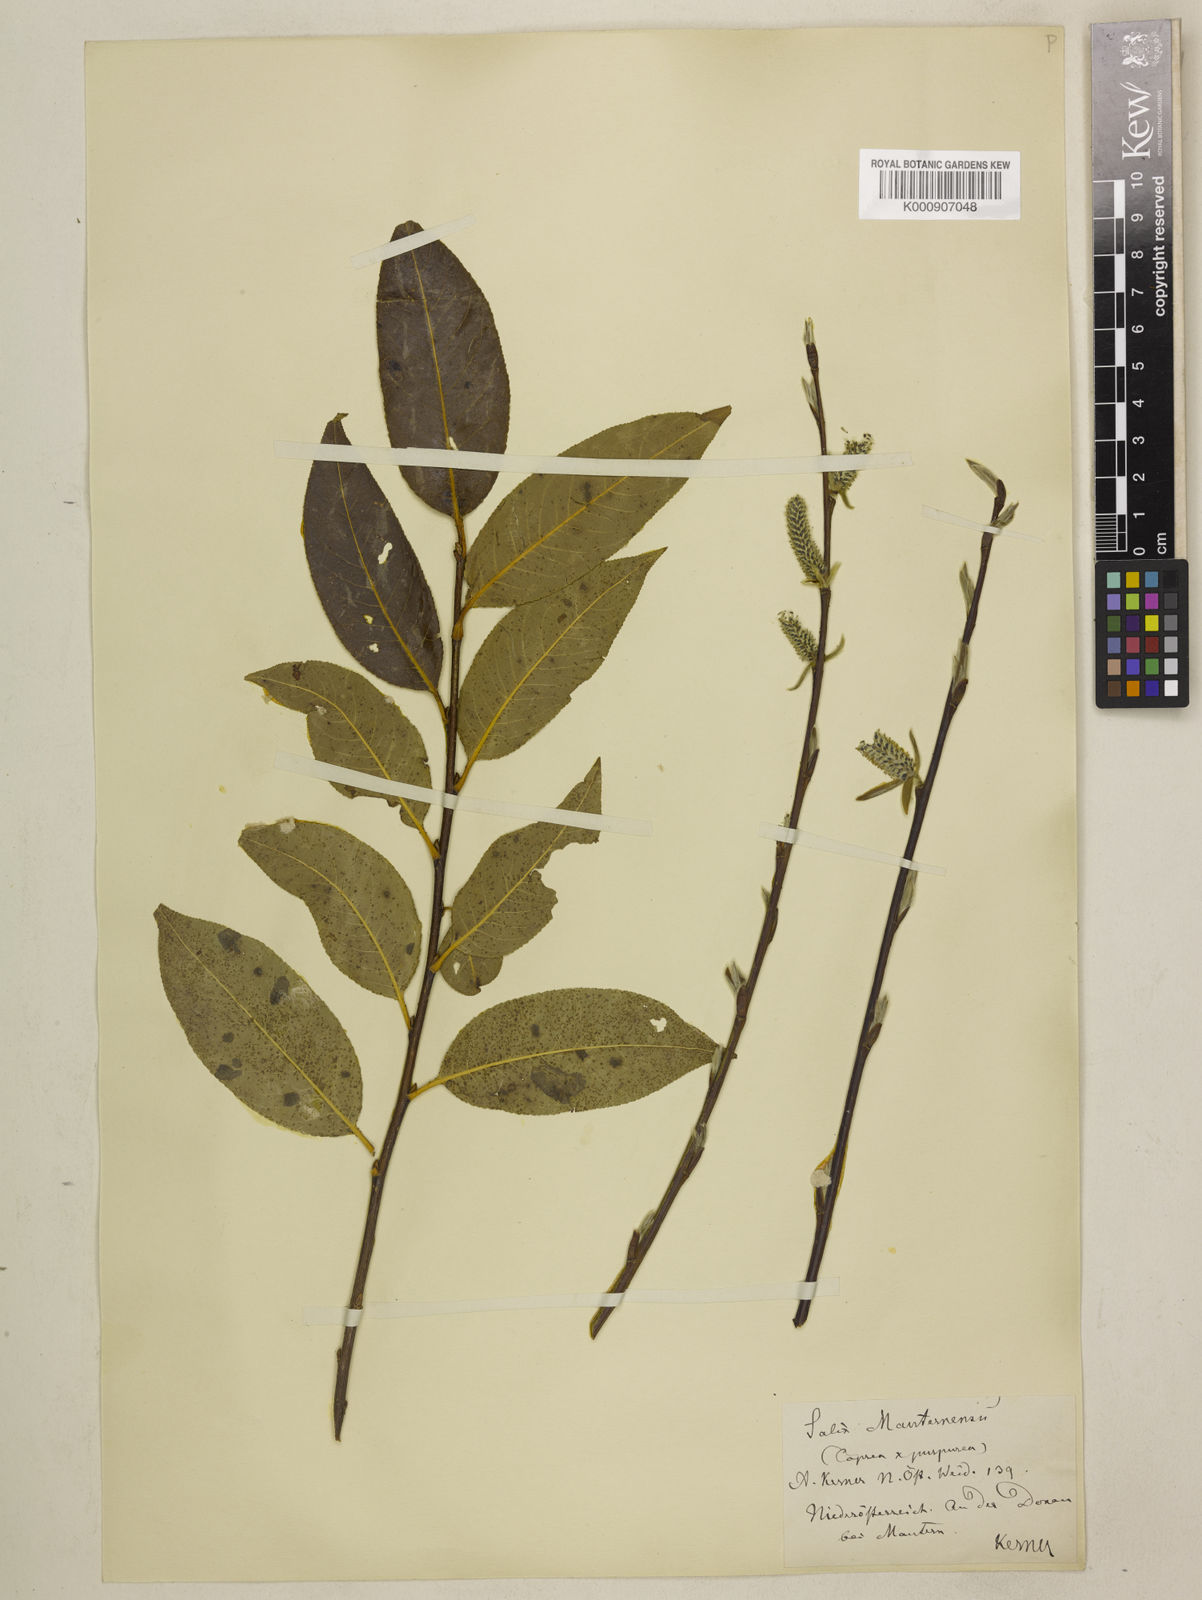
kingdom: Plantae
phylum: Tracheophyta
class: Magnoliopsida
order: Malpighiales
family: Salicaceae
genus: Salix
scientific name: Salix caprea
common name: Goat willow
